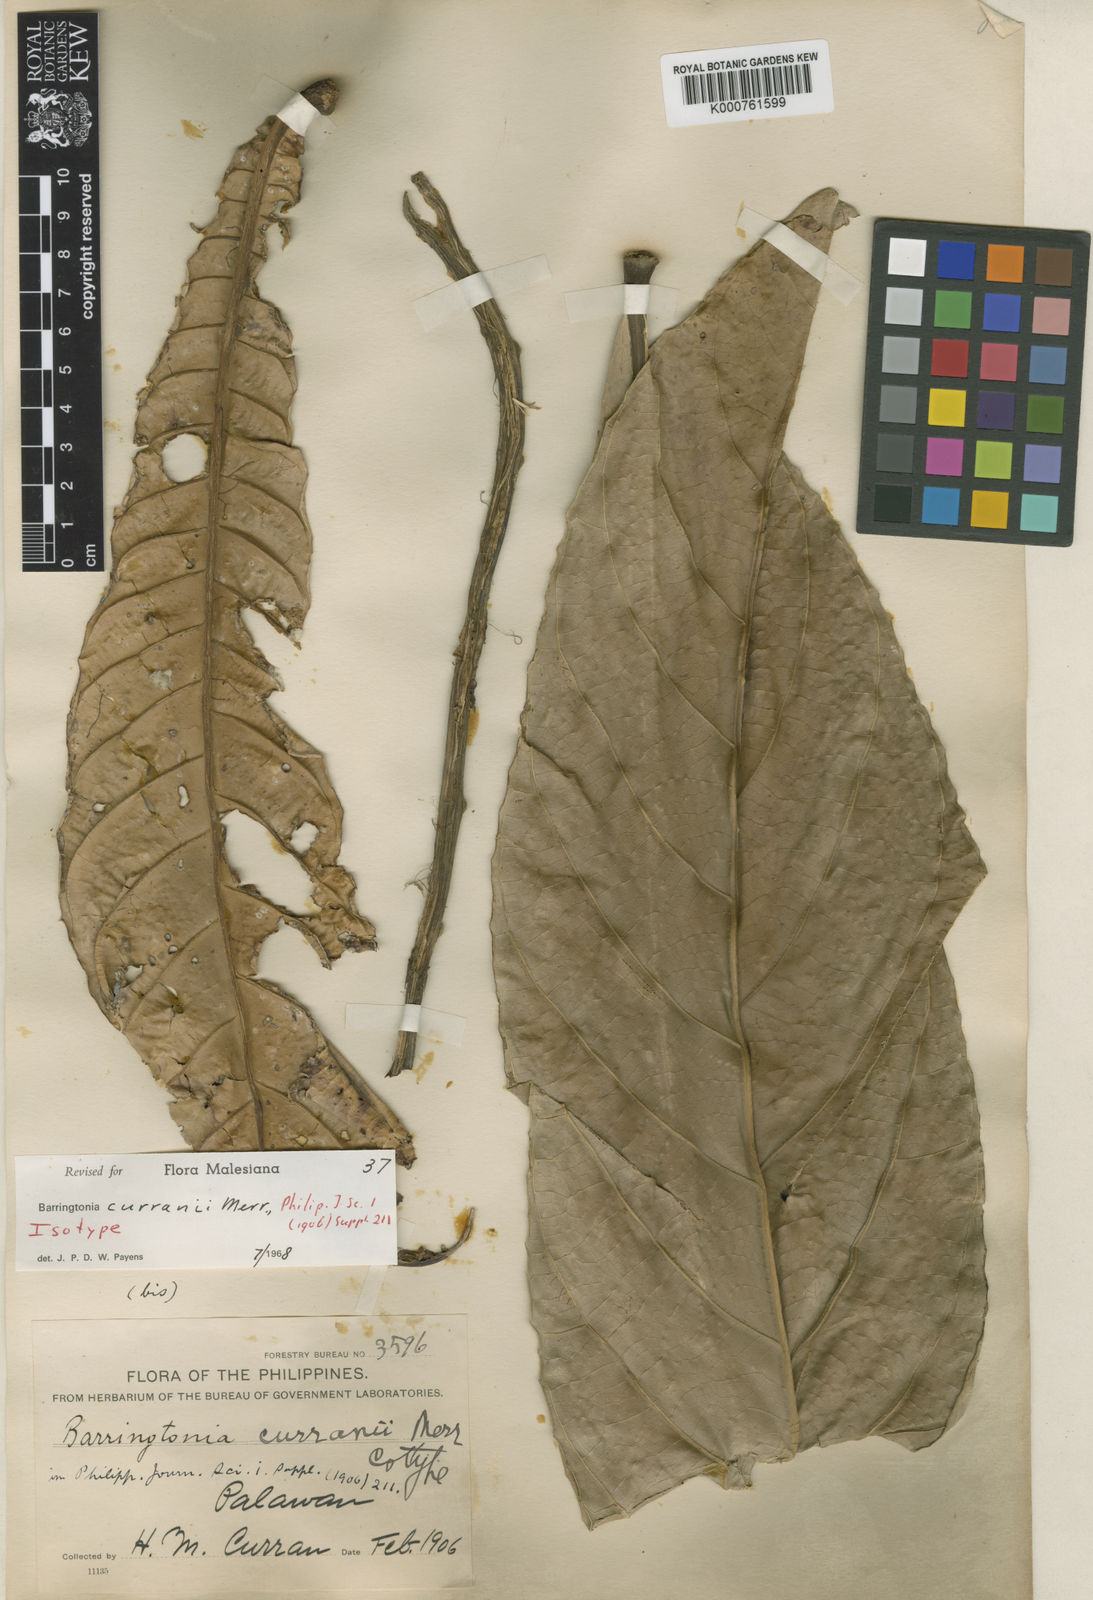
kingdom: Plantae
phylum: Tracheophyta
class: Magnoliopsida
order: Ericales
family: Lecythidaceae
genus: Barringtonia
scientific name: Barringtonia curranii
